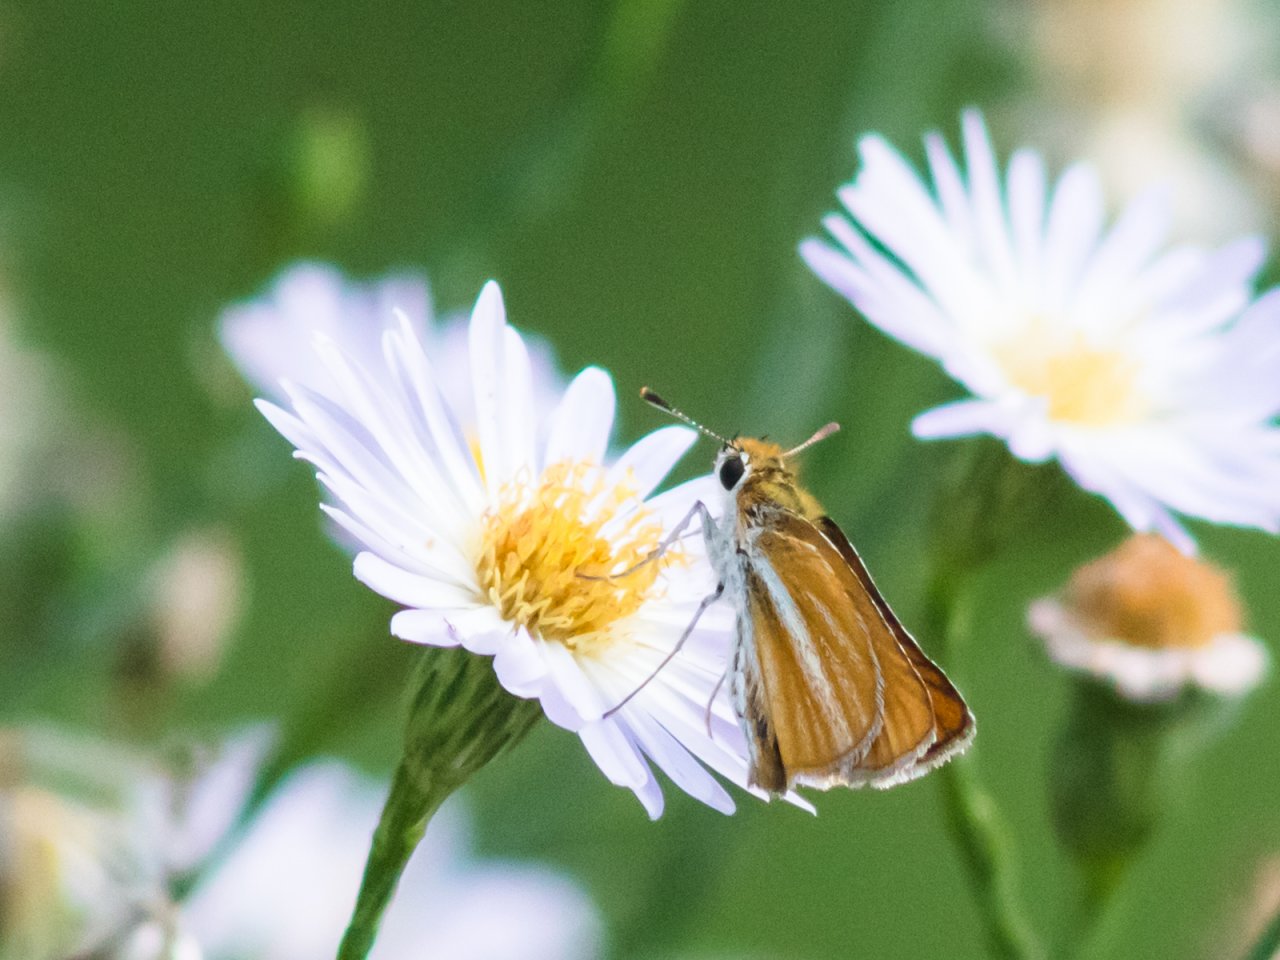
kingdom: Animalia
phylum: Arthropoda
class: Insecta
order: Lepidoptera
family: Hesperiidae
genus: Copaeodes
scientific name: Copaeodes minima
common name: Southern Skipperling
